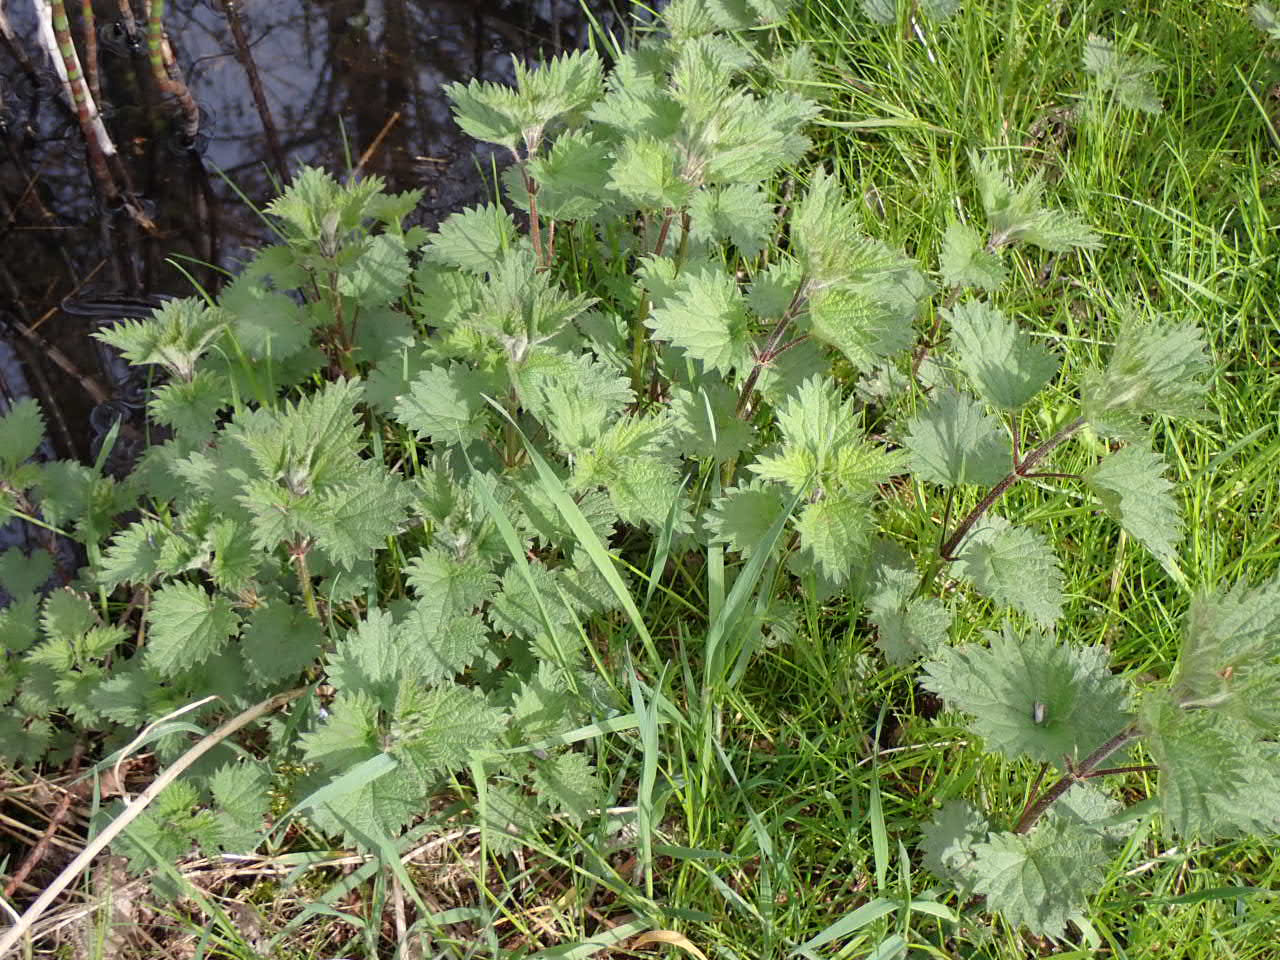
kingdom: Plantae
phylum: Tracheophyta
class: Magnoliopsida
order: Rosales
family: Urticaceae
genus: Urtica
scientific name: Urtica dioica
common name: Stor nælde
